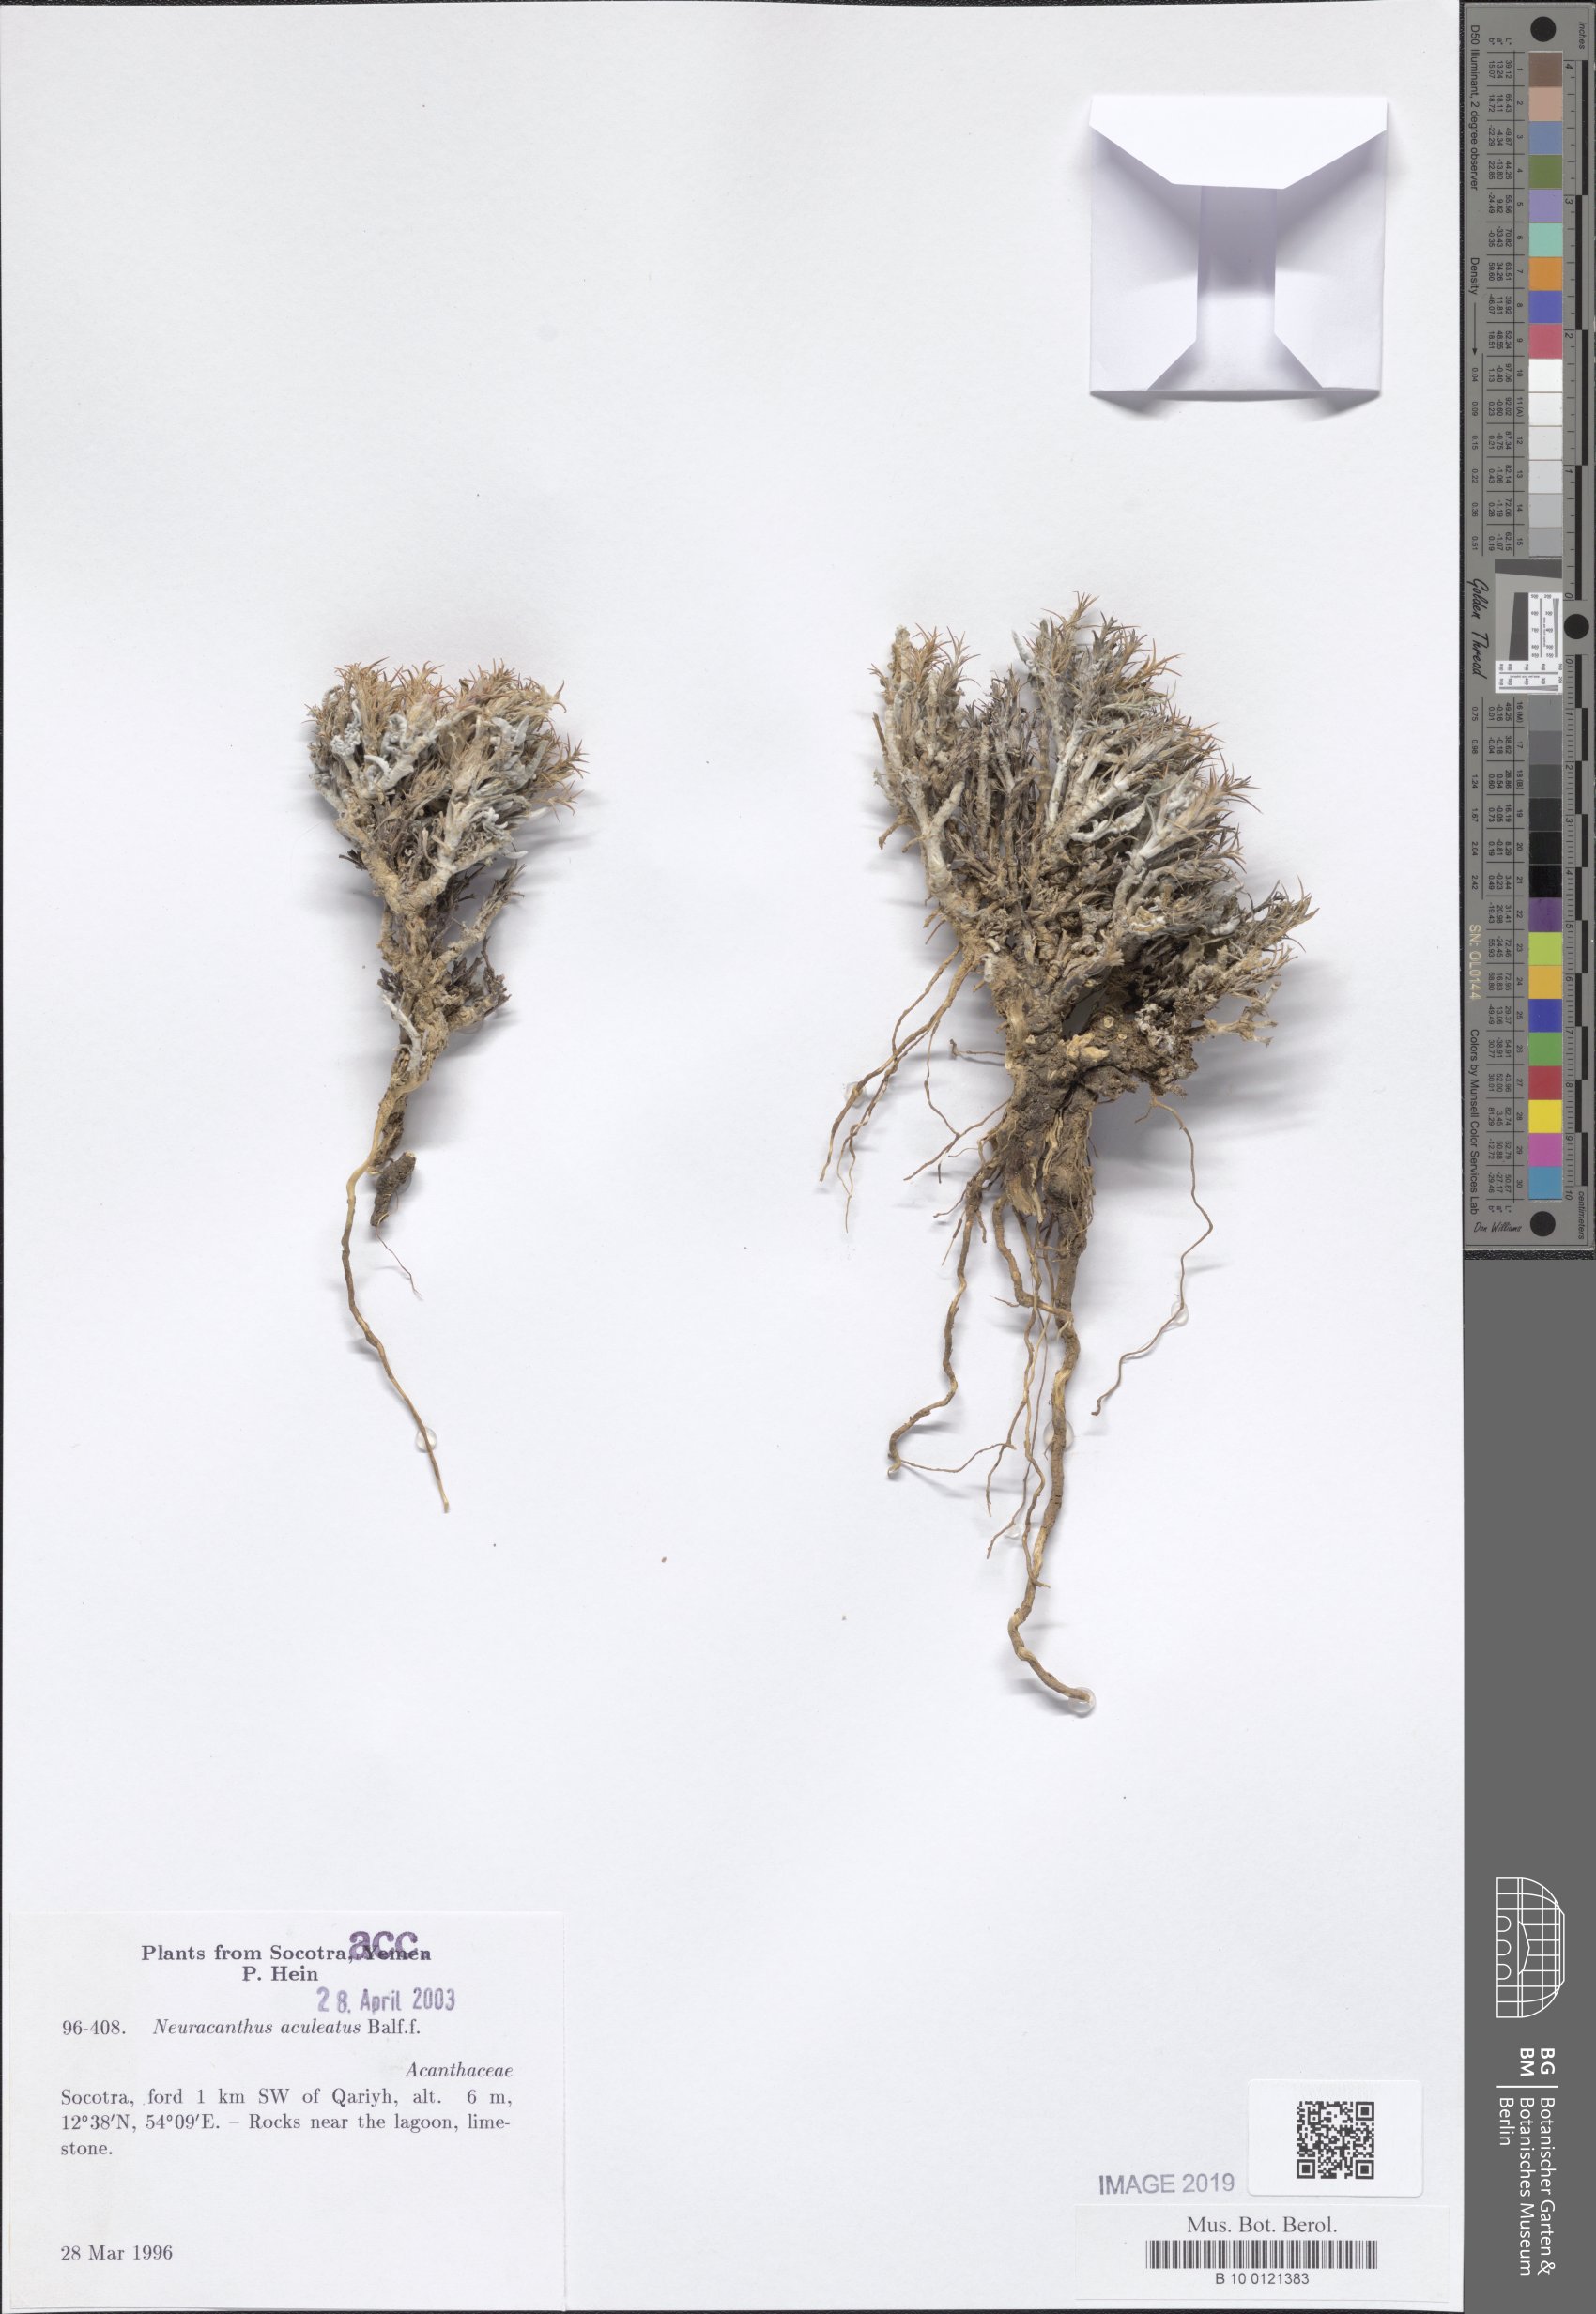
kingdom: Plantae
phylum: Tracheophyta
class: Magnoliopsida
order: Lamiales
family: Acanthaceae
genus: Neuracanthus
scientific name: Neuracanthus aculeatus
